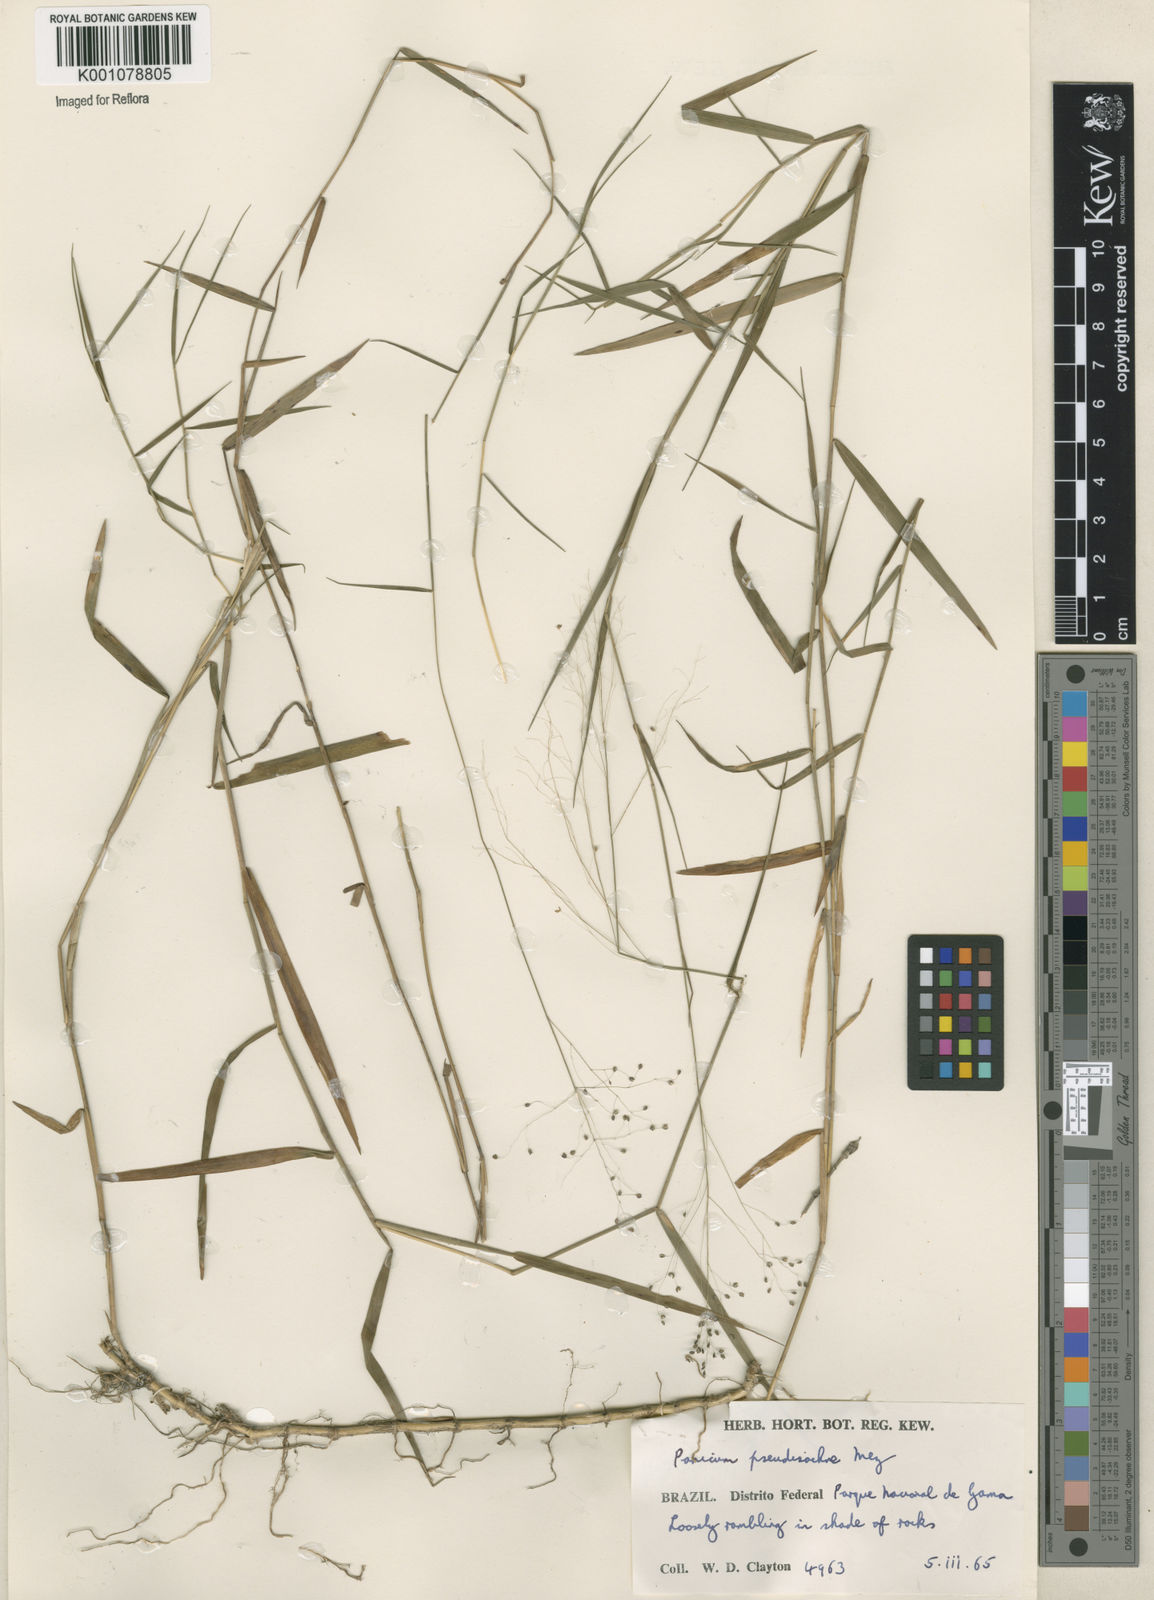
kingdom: Plantae
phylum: Tracheophyta
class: Liliopsida
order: Poales
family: Poaceae
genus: Trichanthecium
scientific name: Trichanthecium pseudisachne
